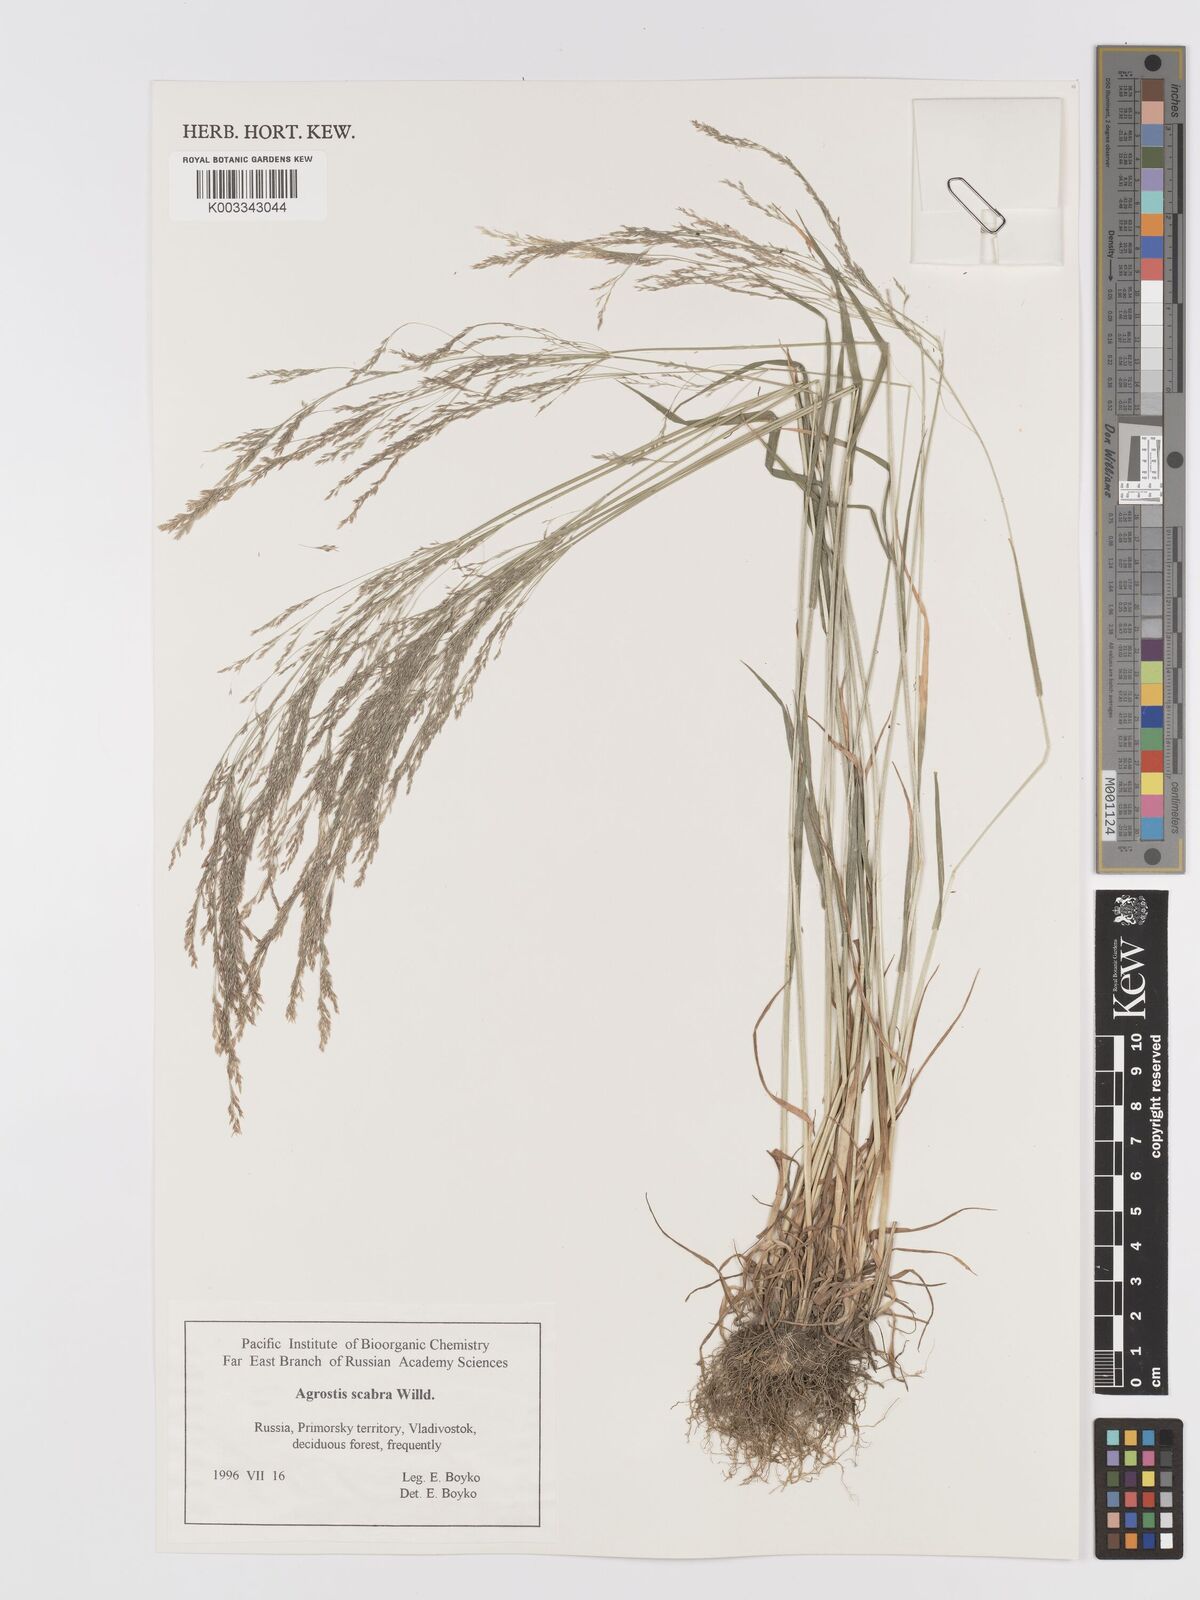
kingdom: Plantae
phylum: Tracheophyta
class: Liliopsida
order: Poales
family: Poaceae
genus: Agrostis
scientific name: Agrostis scabra
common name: Rough bent
